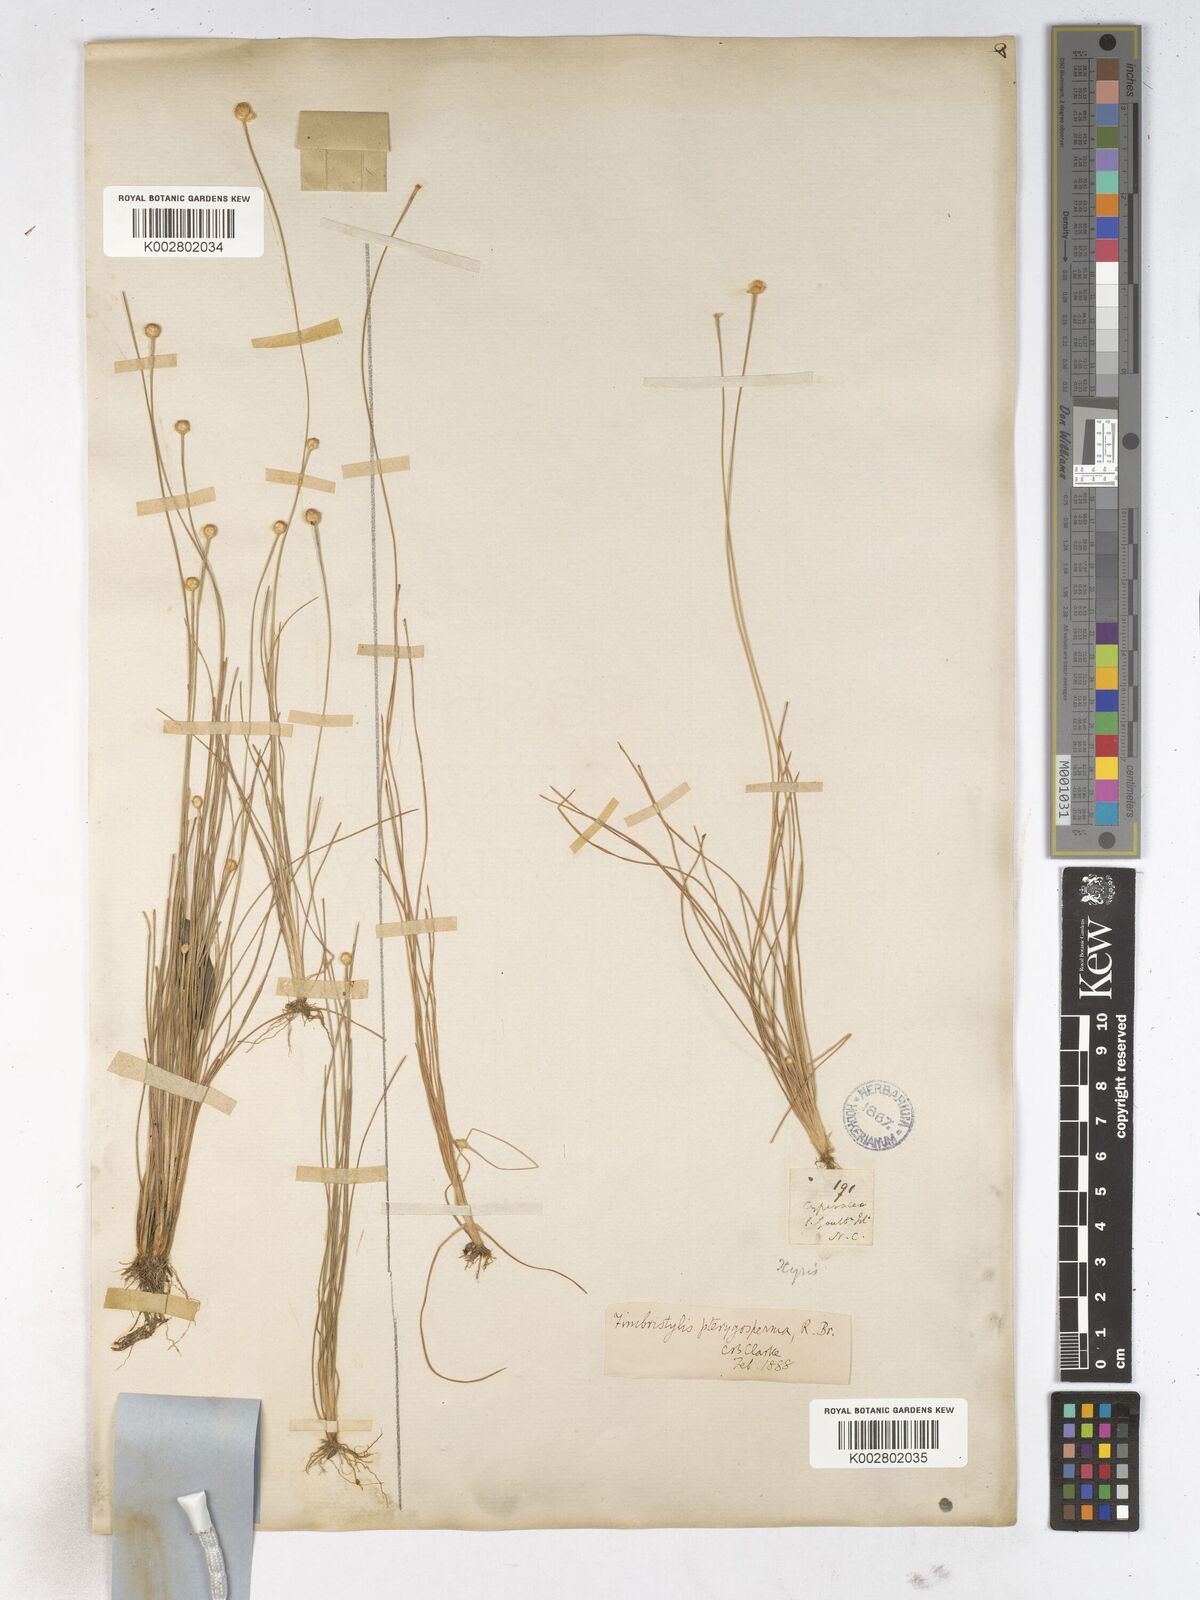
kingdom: Plantae
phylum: Tracheophyta
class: Liliopsida
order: Poales
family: Cyperaceae
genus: Fimbristylis
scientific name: Fimbristylis pterigosperma
